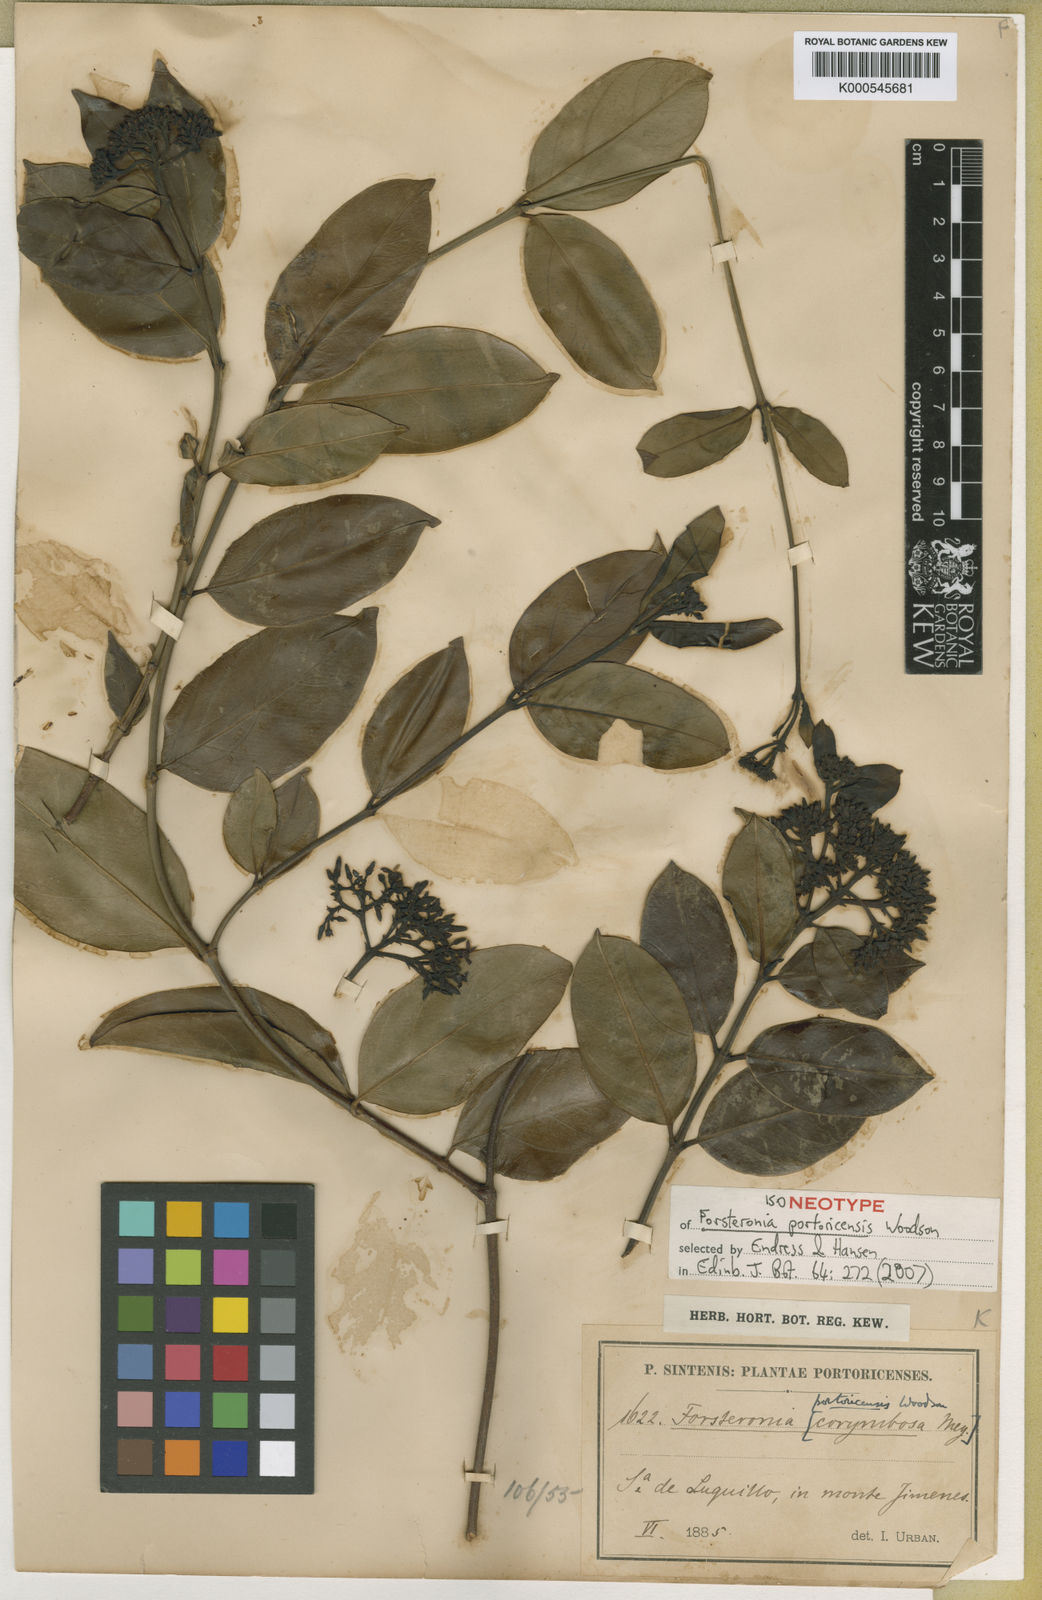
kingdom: Plantae
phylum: Tracheophyta
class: Magnoliopsida
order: Gentianales
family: Apocynaceae
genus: Pinochia
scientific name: Pinochia corymbosa
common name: Sanjuanera
